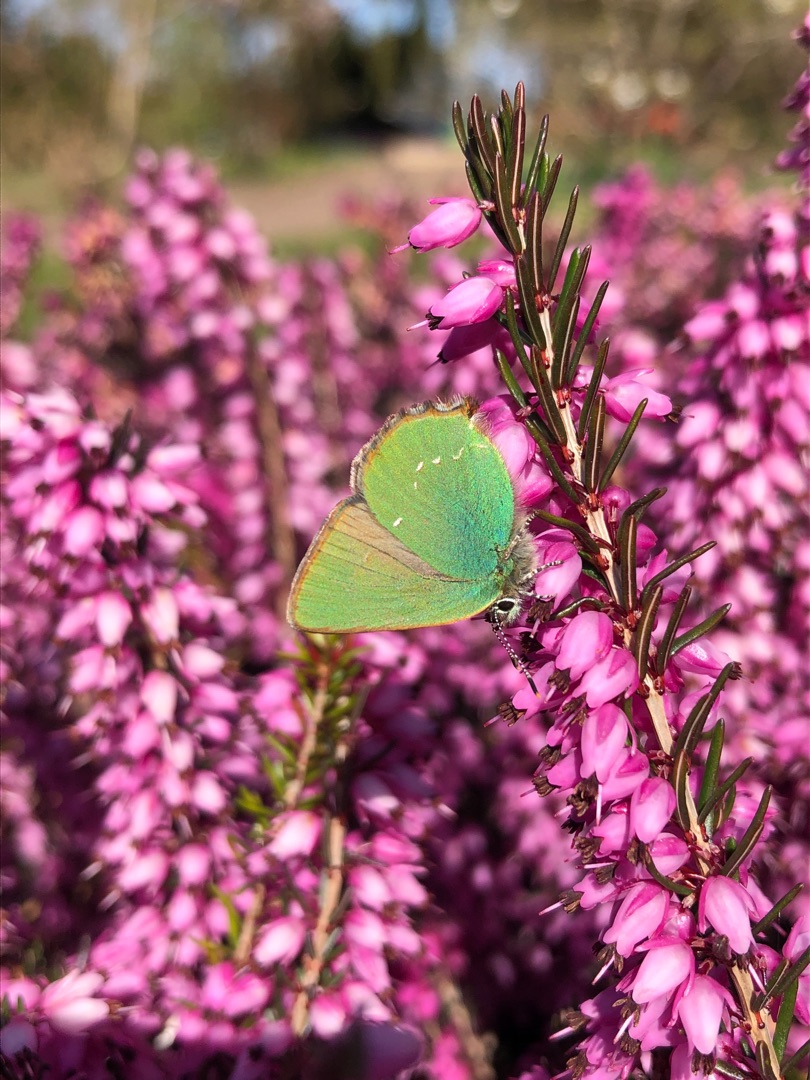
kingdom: Animalia
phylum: Arthropoda
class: Insecta
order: Lepidoptera
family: Lycaenidae
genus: Callophrys
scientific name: Callophrys rubi
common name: Grøn busksommerfugl
